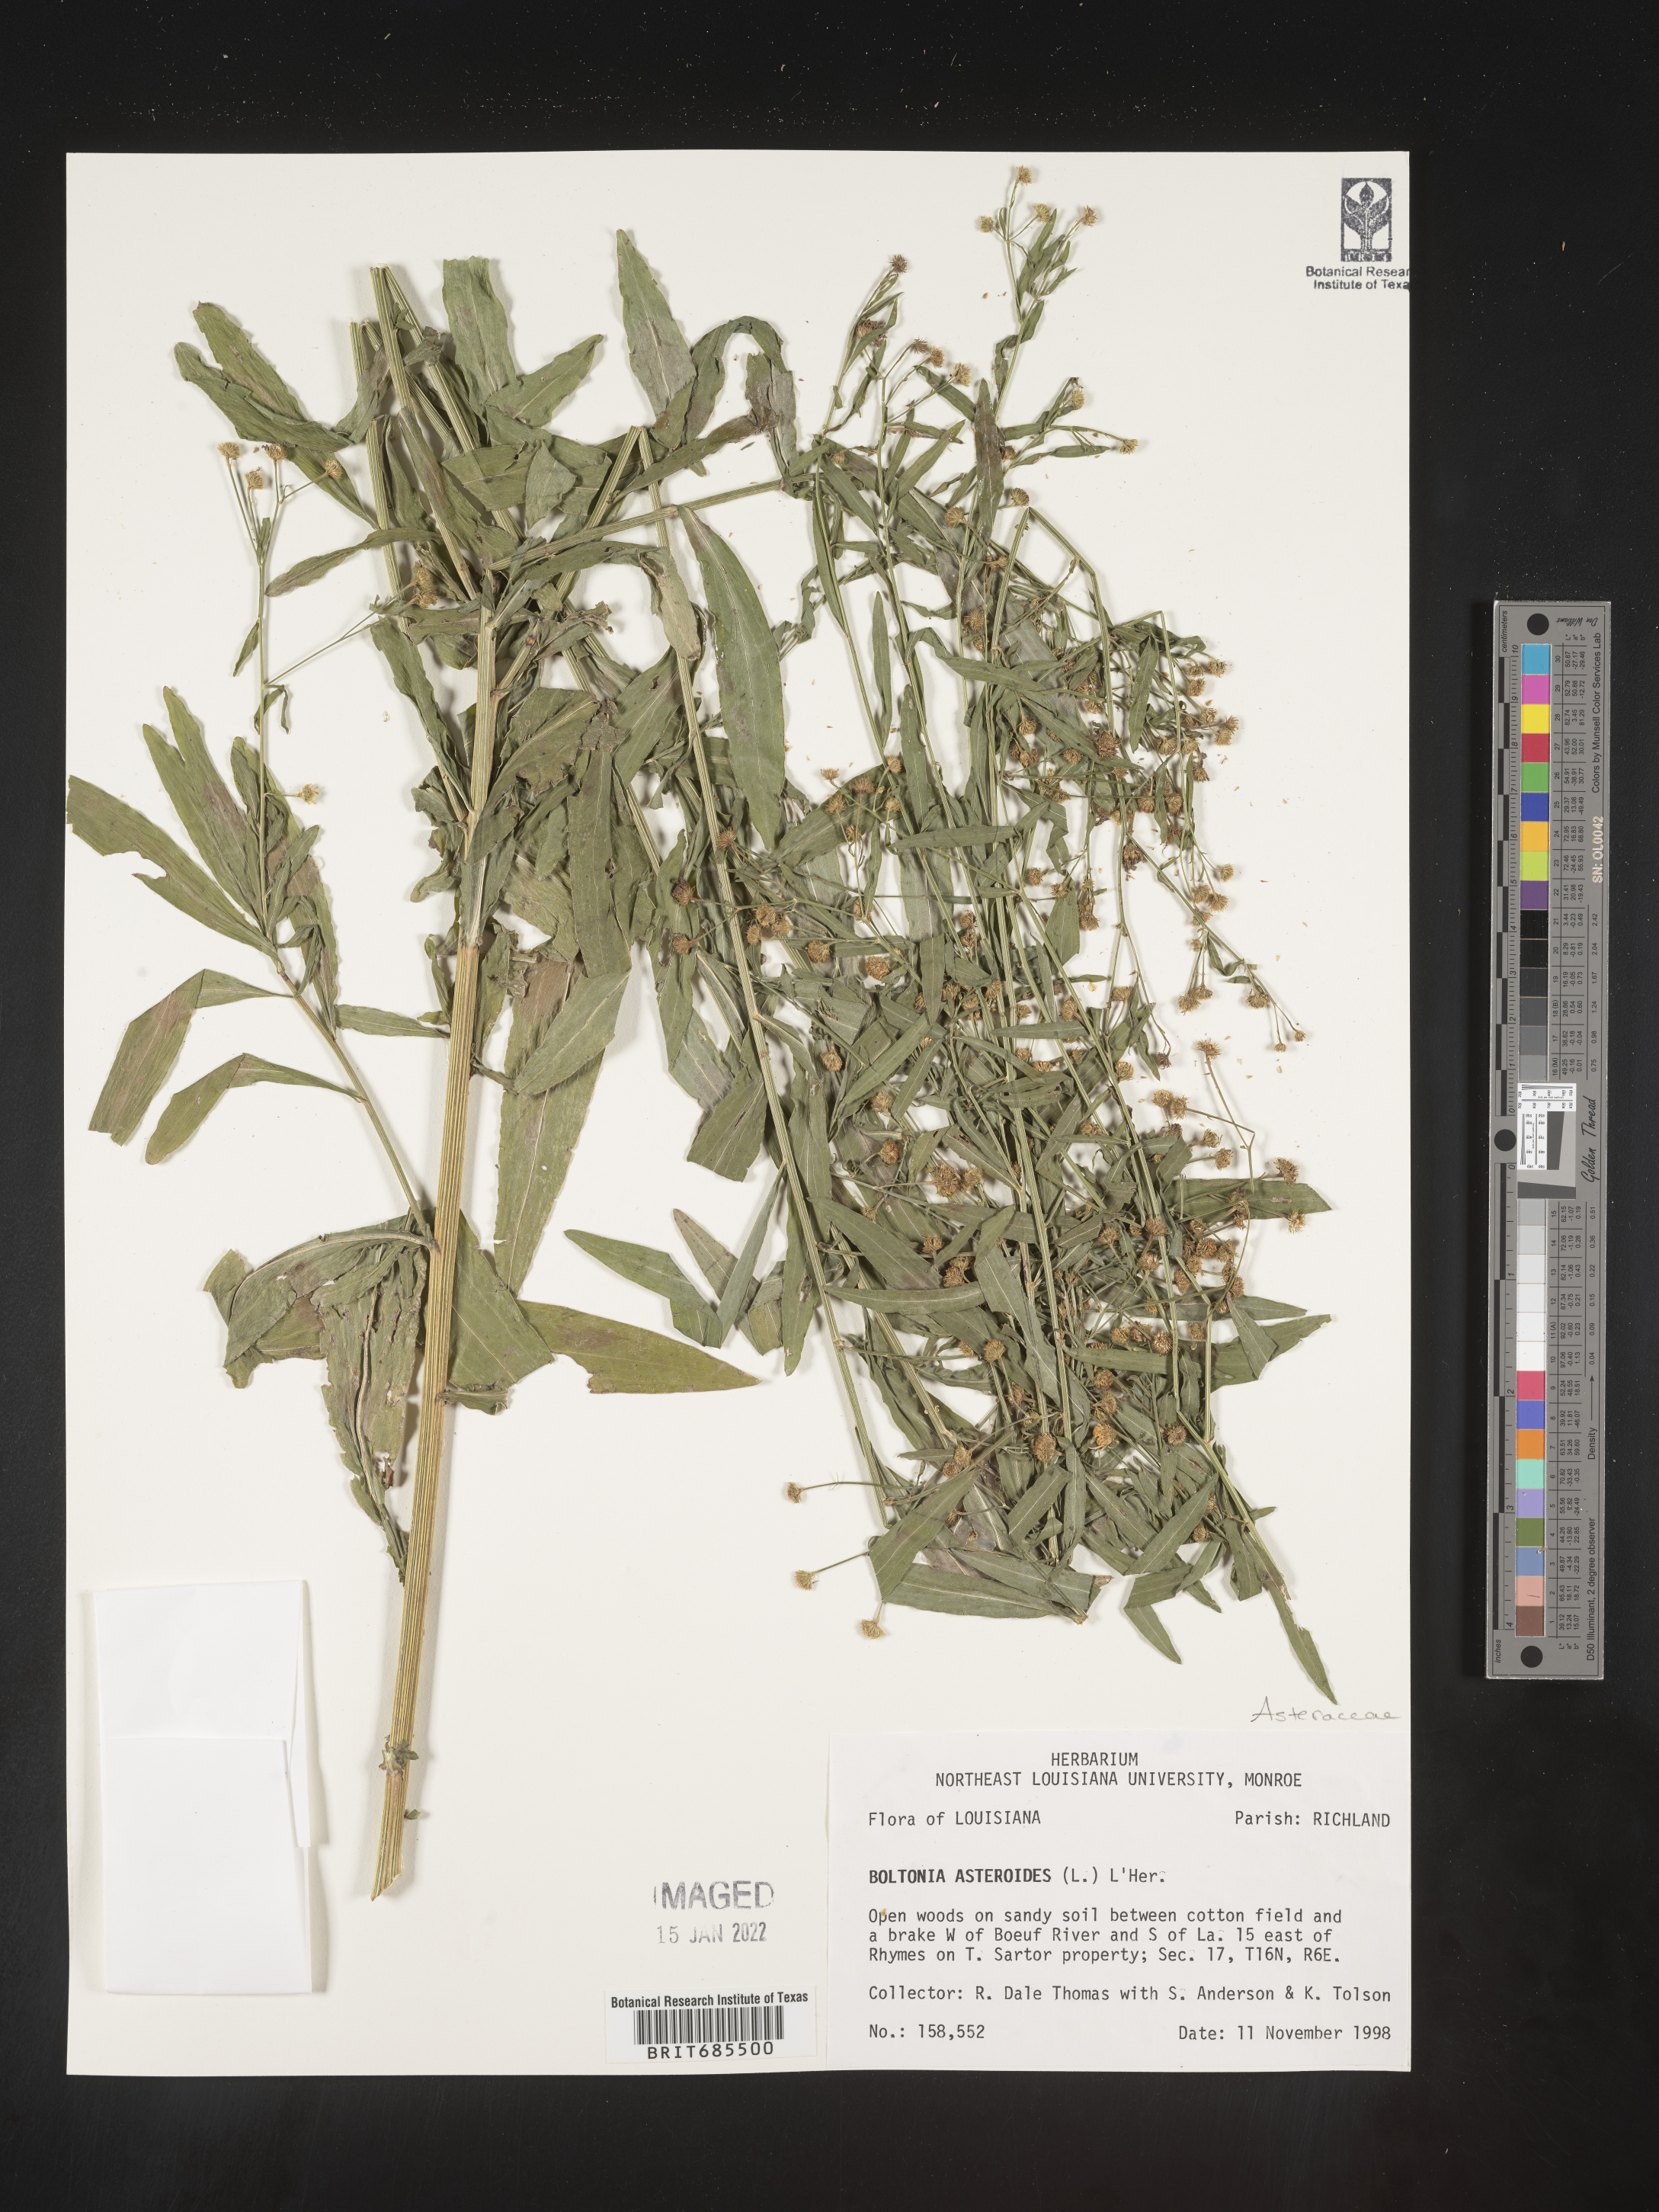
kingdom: Plantae
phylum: Tracheophyta
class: Magnoliopsida
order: Asterales
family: Asteraceae
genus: Boltonia
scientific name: Boltonia asteroides
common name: False chamomile
